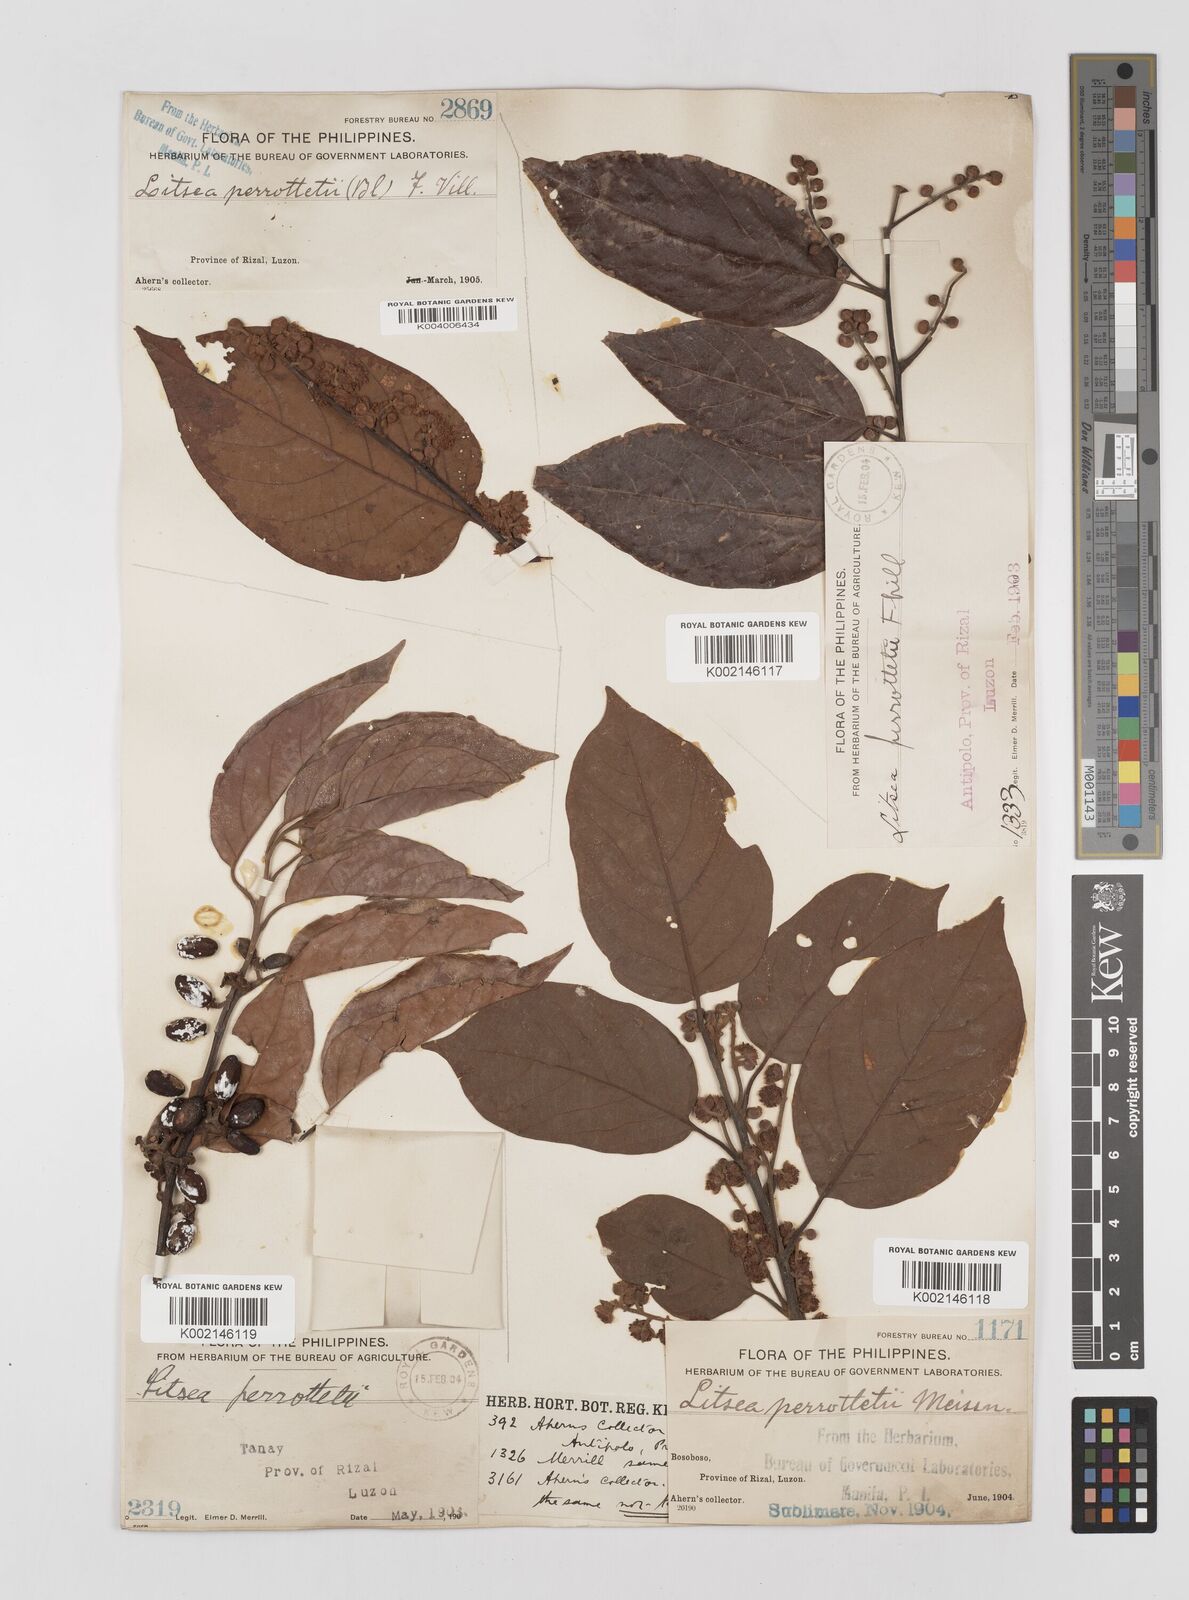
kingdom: Plantae
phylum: Tracheophyta
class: Magnoliopsida
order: Laurales
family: Lauraceae
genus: Litsea
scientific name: Litsea cordata
